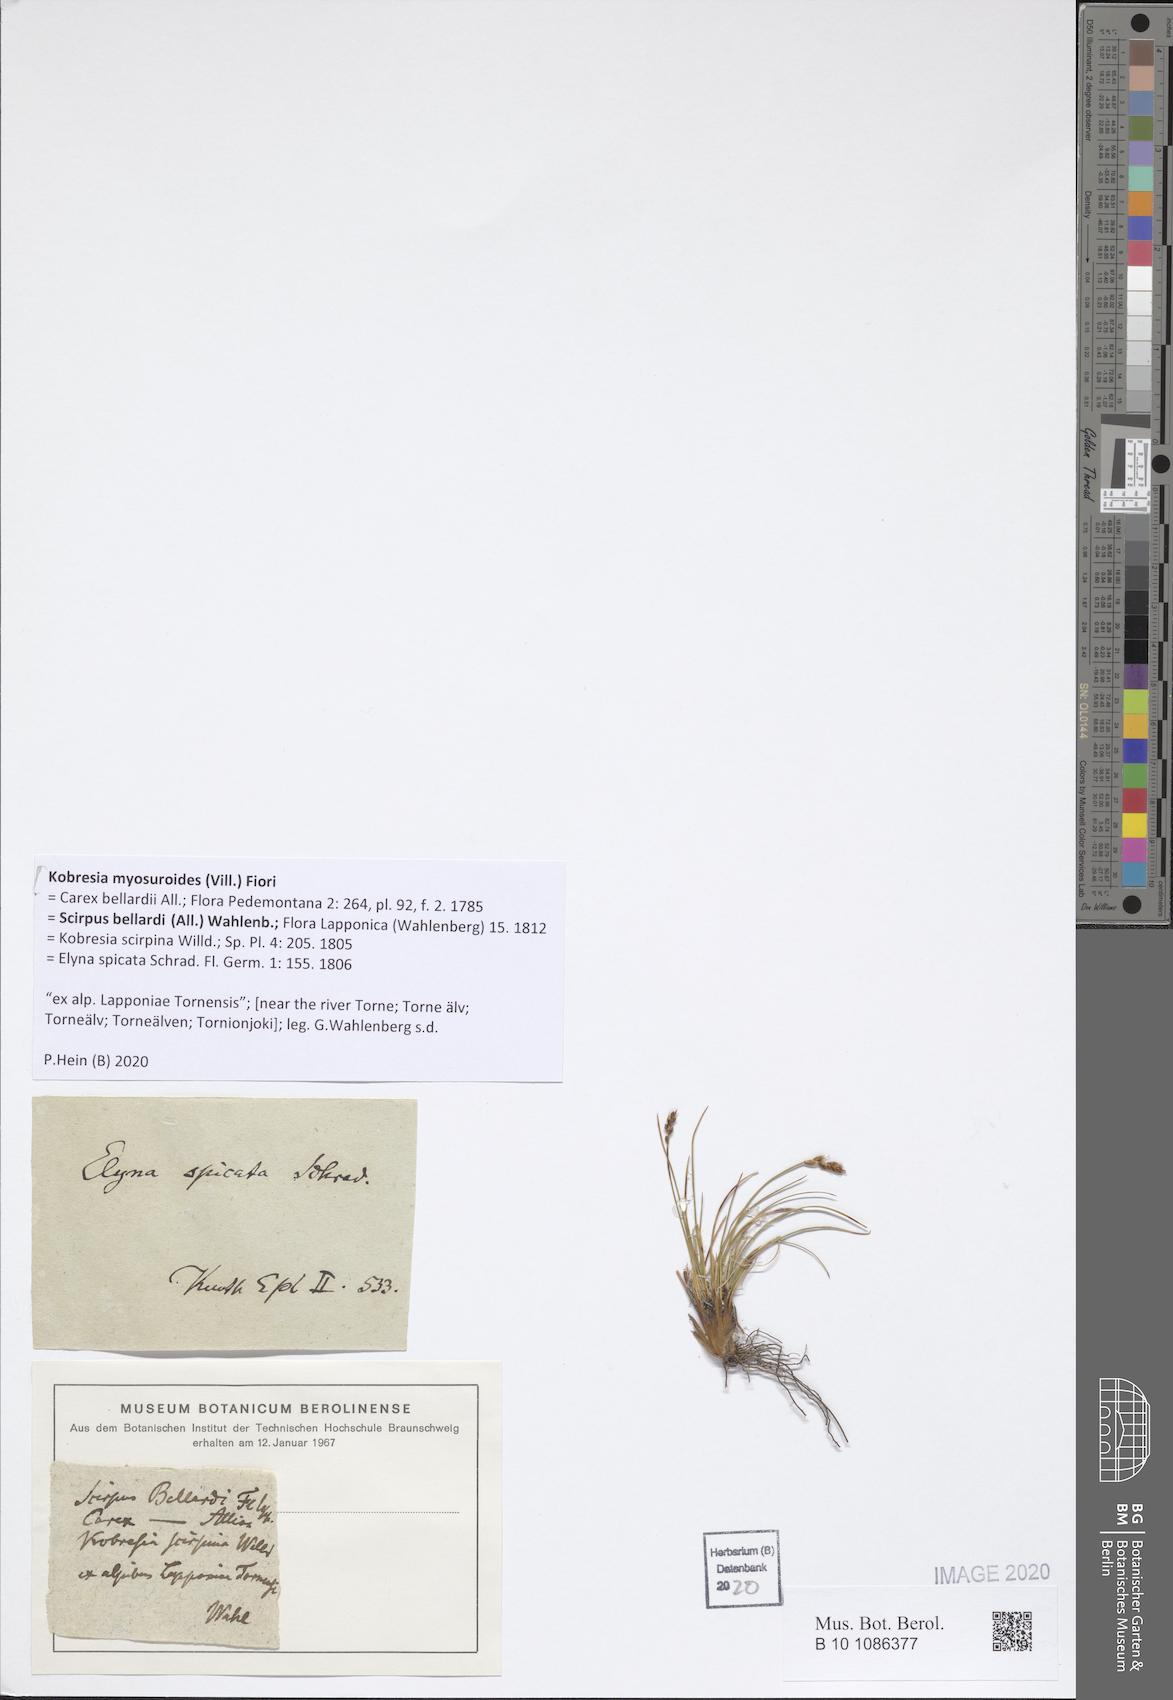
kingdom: Plantae
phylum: Tracheophyta
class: Liliopsida
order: Poales
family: Cyperaceae
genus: Carex
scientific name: Carex myosuroides
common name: Bellard's bog sedge
